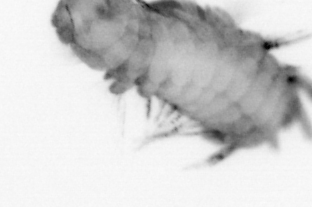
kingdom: Animalia
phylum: Annelida
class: Polychaeta
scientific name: Polychaeta
